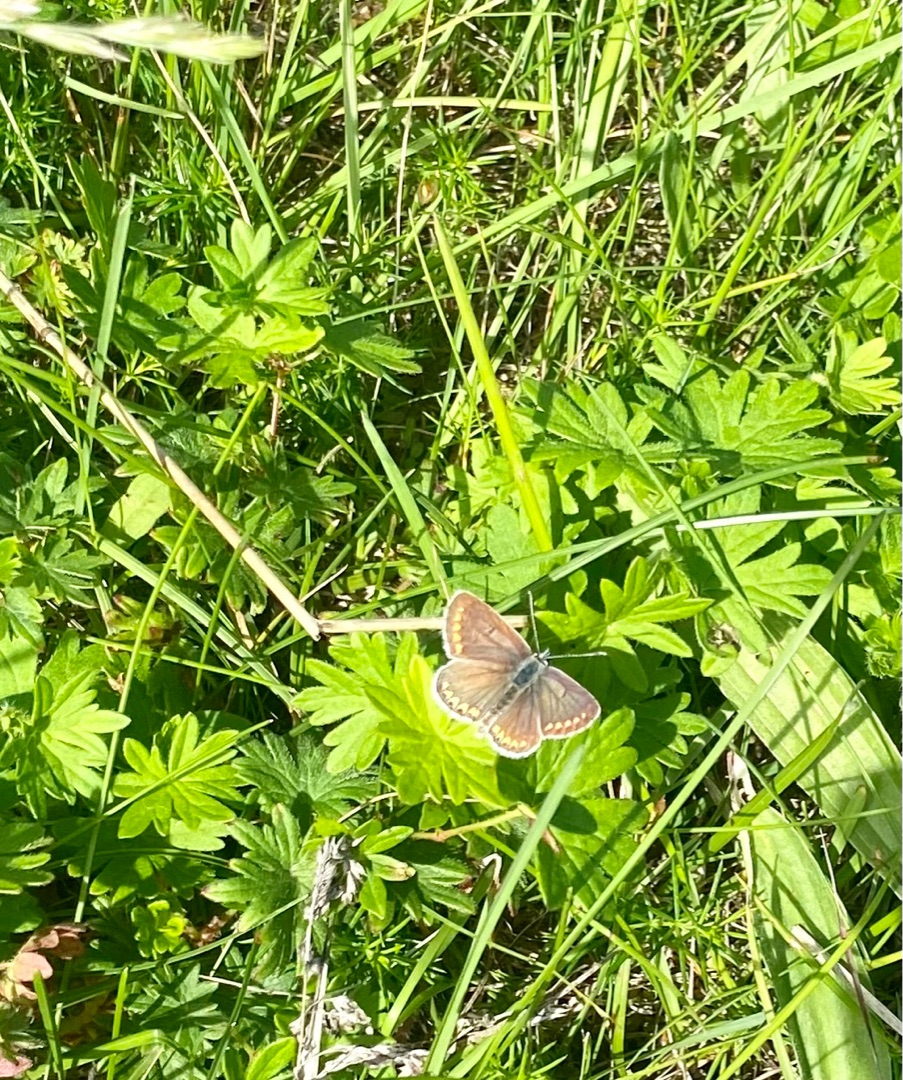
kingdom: Animalia
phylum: Arthropoda
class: Insecta
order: Lepidoptera
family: Lycaenidae
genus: Aricia
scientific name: Aricia agestis
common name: Rødplettet blåfugl
